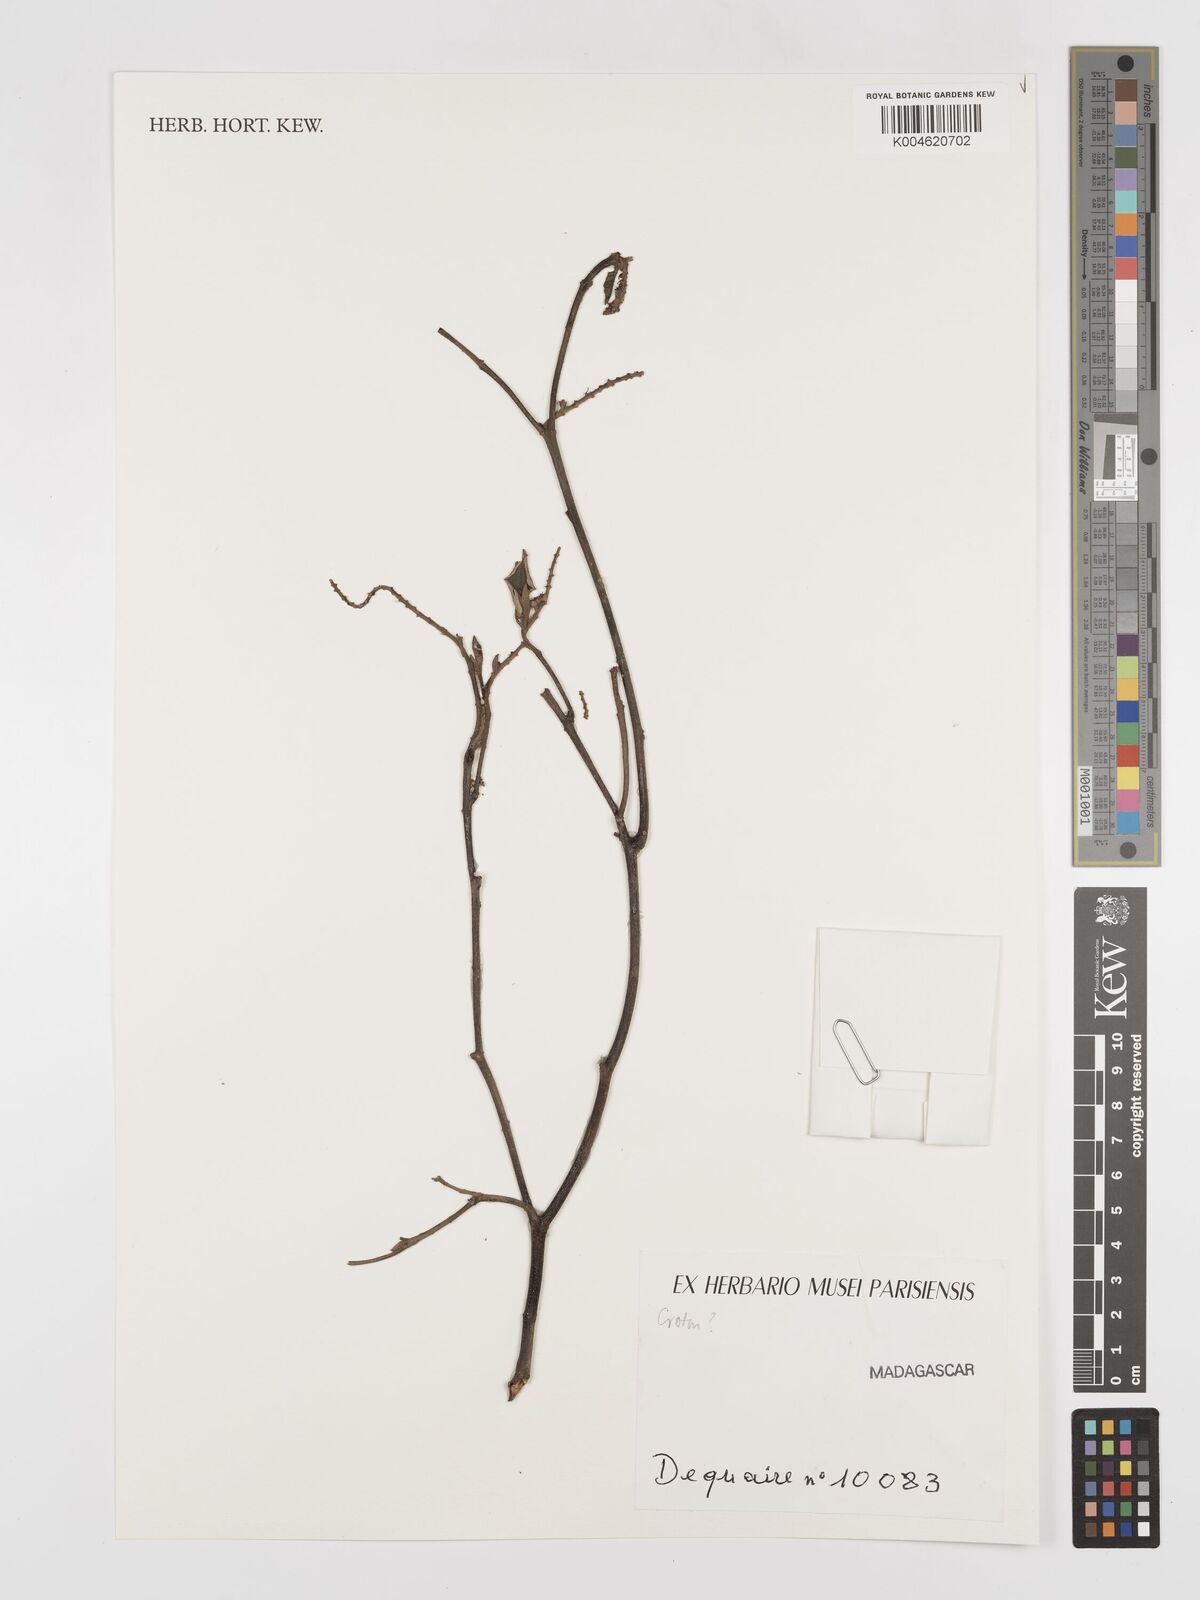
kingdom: Plantae
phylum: Tracheophyta
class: Magnoliopsida
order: Malpighiales
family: Euphorbiaceae
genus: Croton
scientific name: Croton
